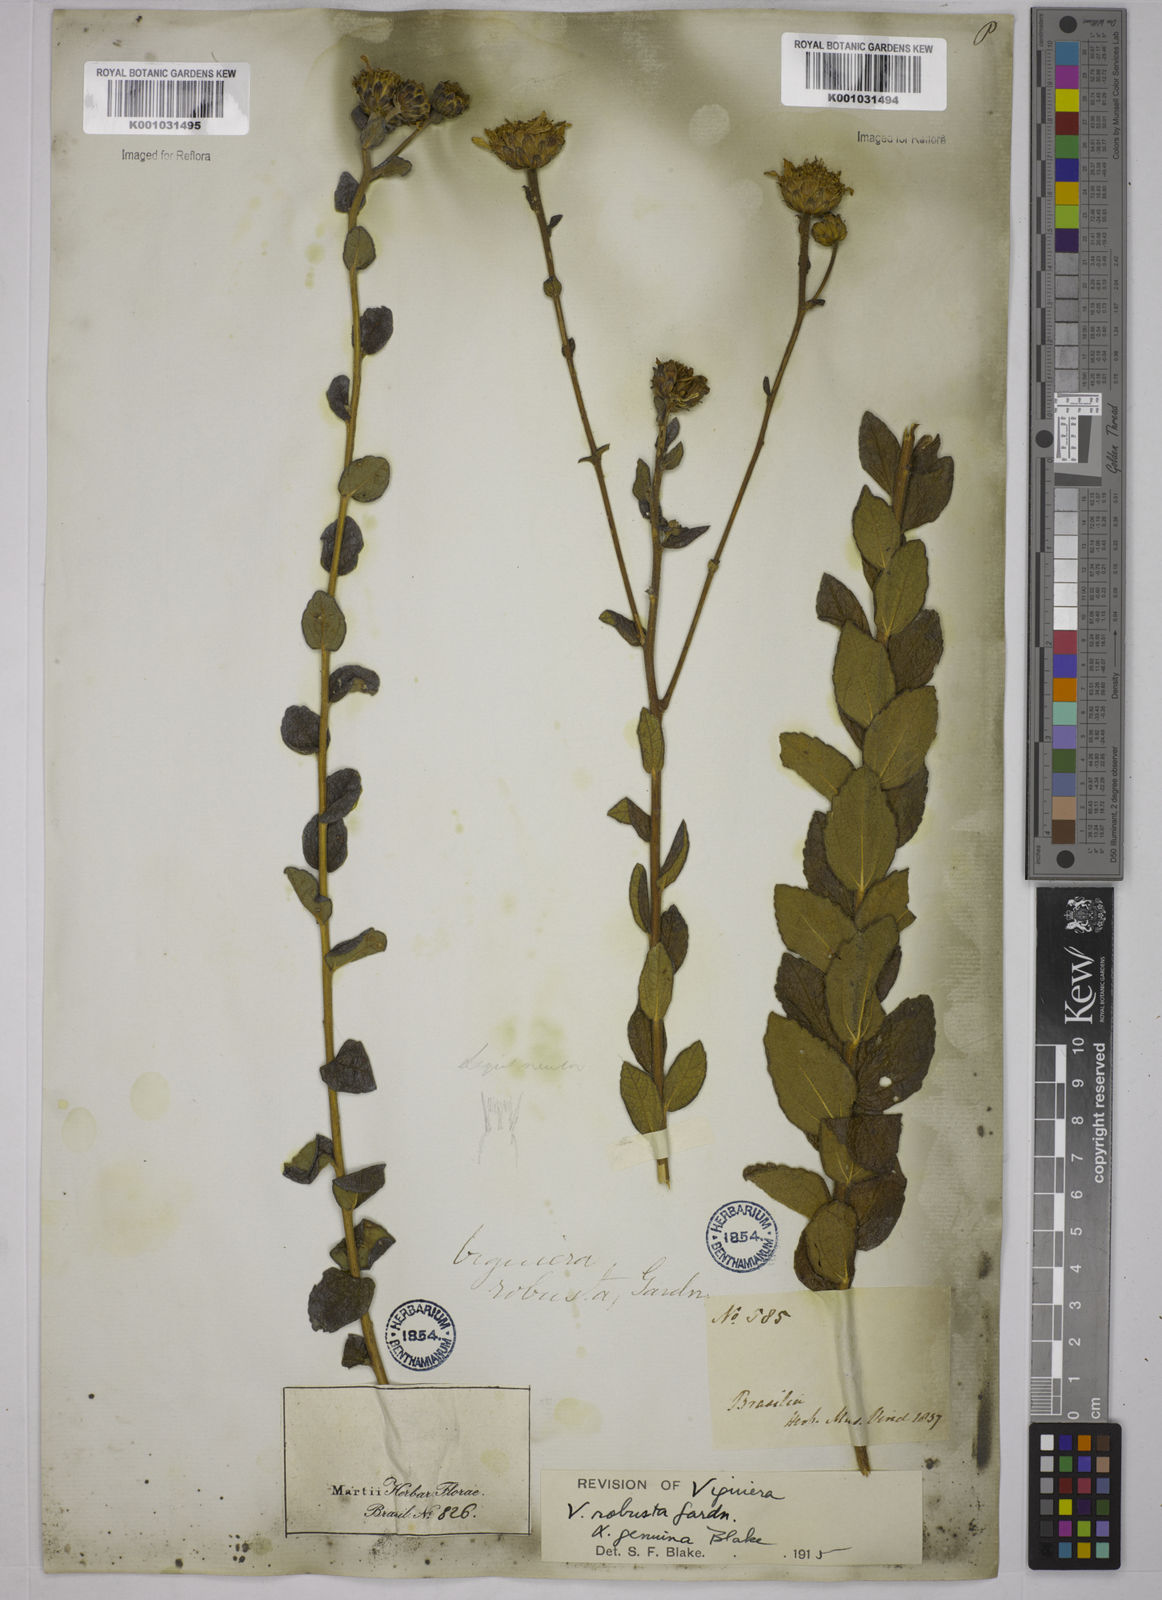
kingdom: Plantae
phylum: Tracheophyta
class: Magnoliopsida
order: Asterales
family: Asteraceae
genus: Aldama
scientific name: Aldama robusta
